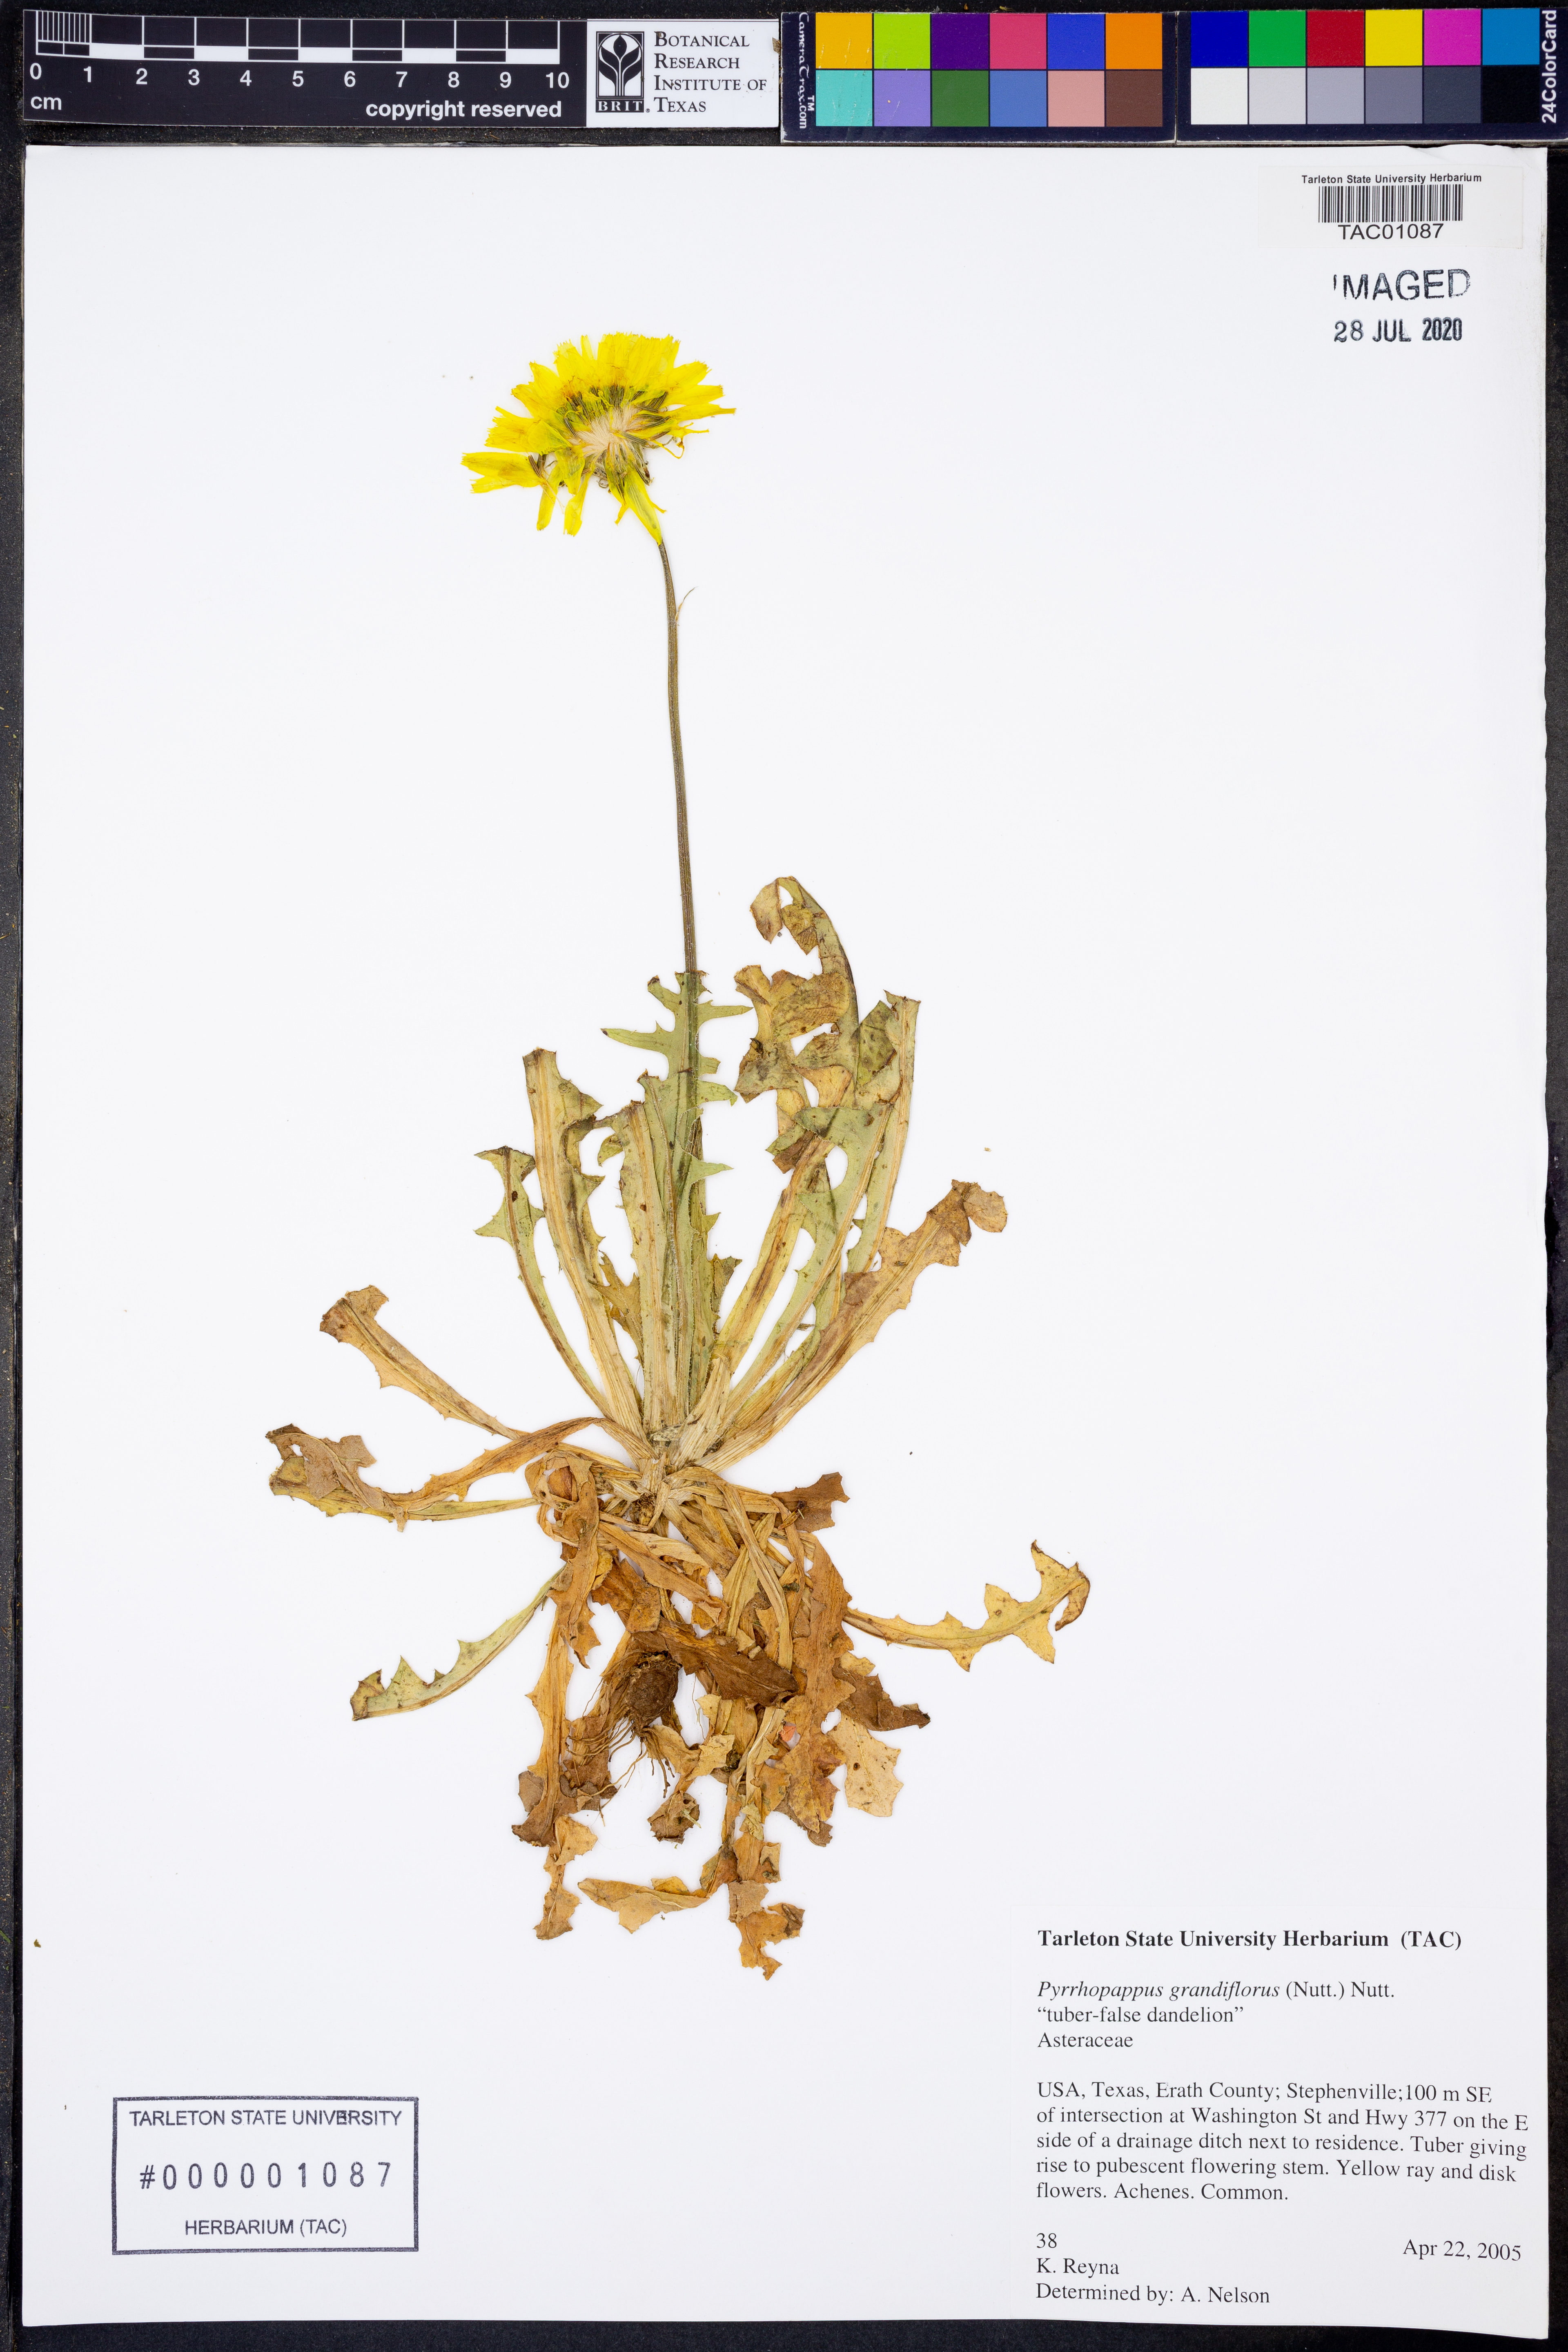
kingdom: Plantae
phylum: Tracheophyta
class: Magnoliopsida
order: Asterales
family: Asteraceae
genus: Pyrrhopappus
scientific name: Pyrrhopappus grandiflorus
